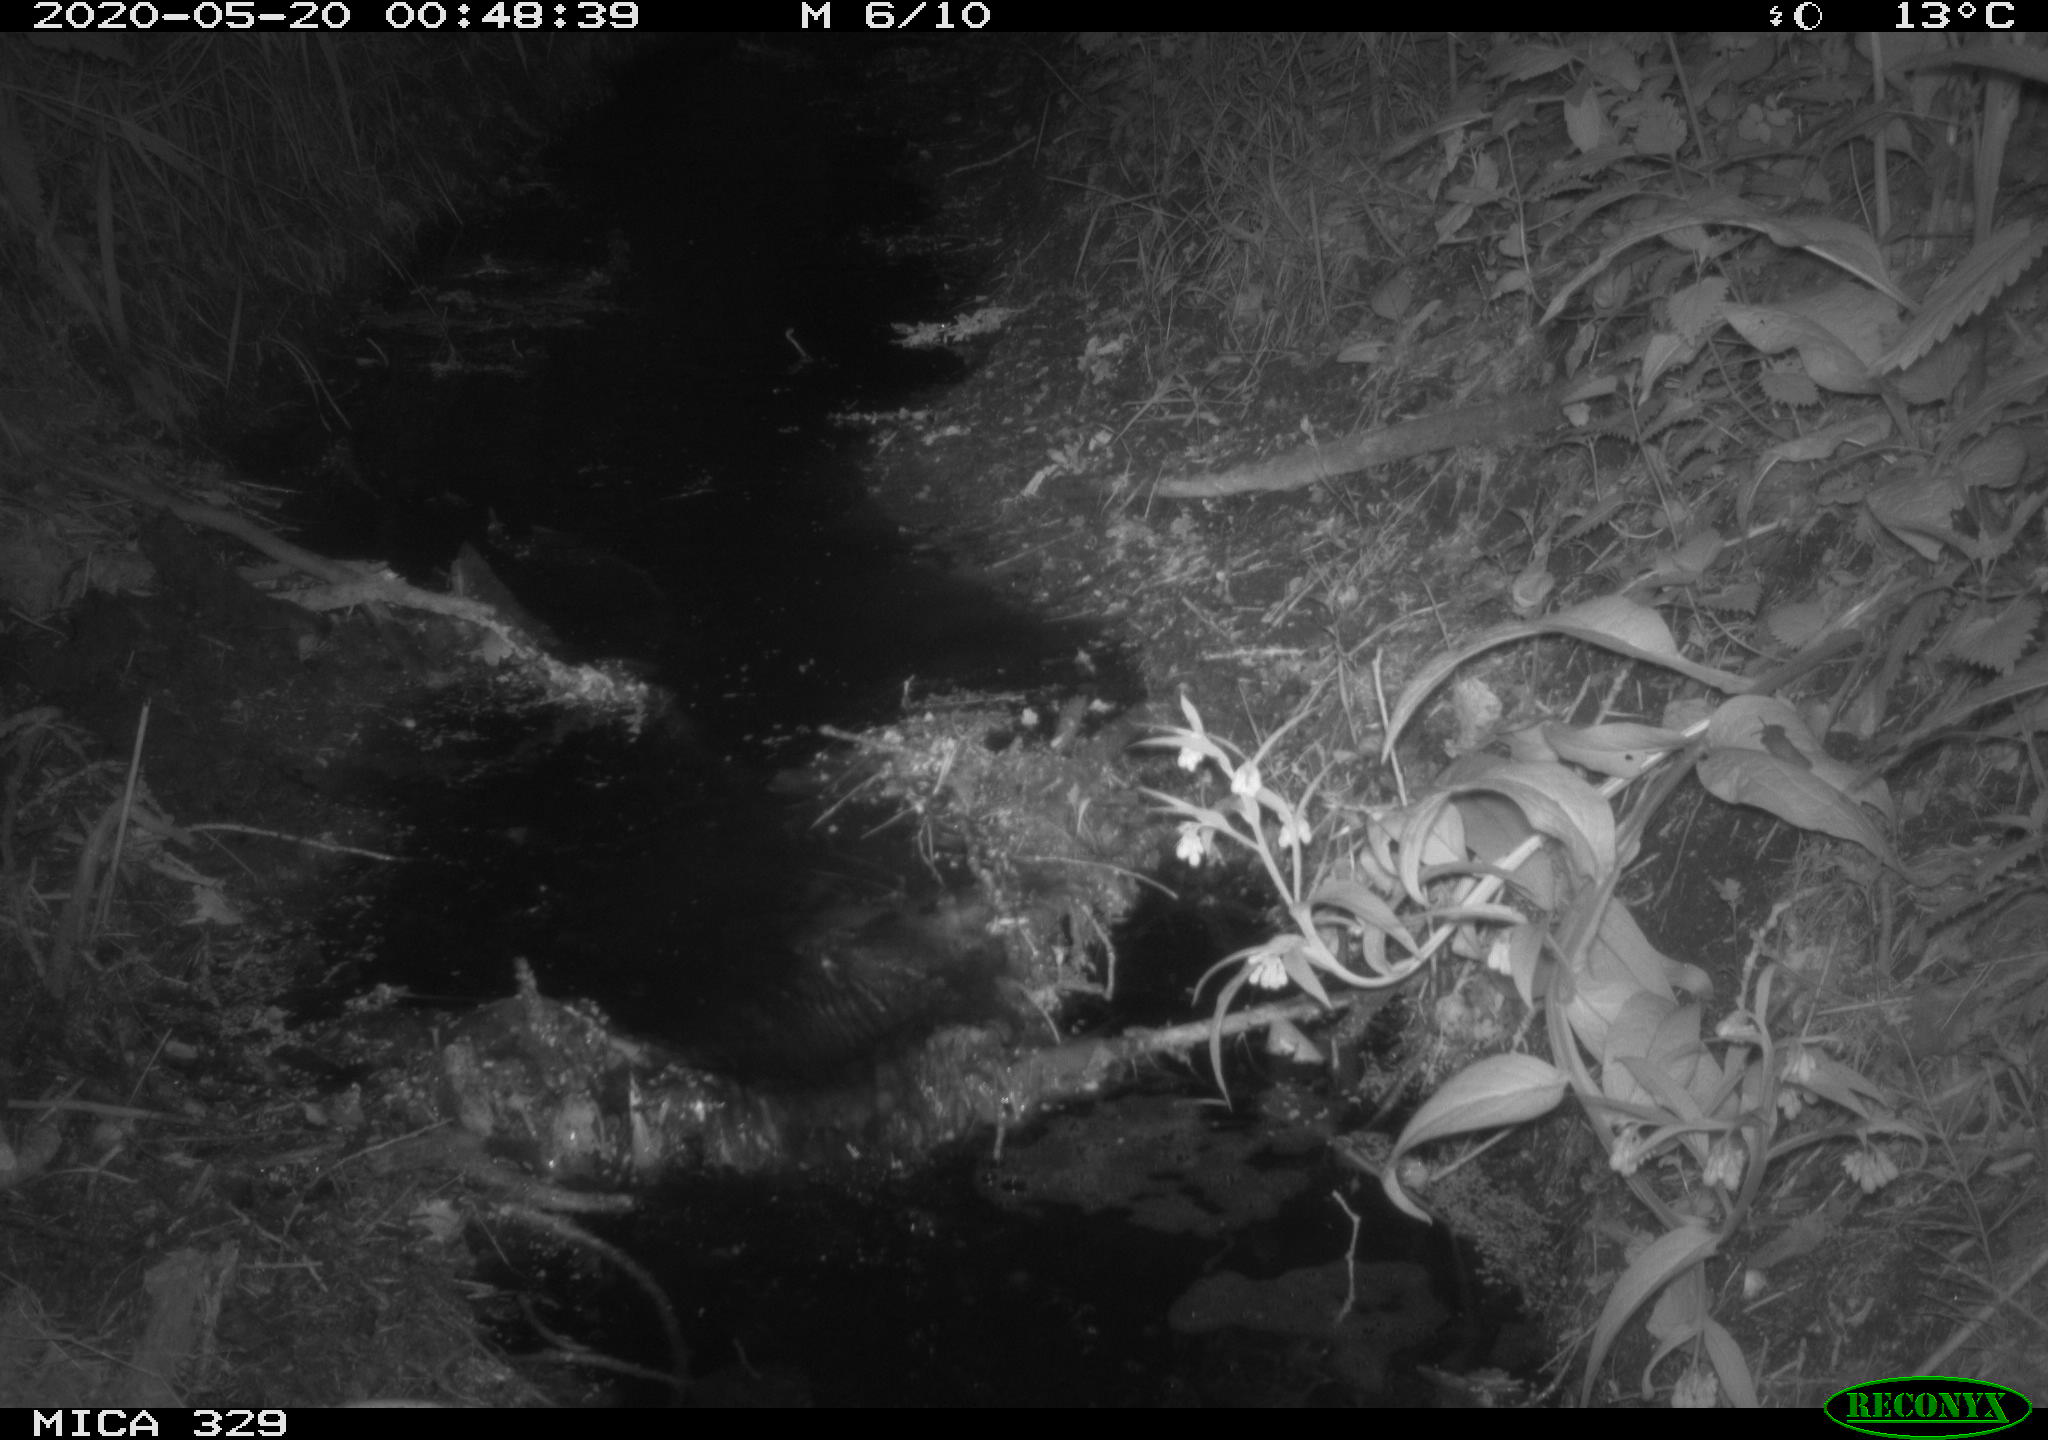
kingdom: Animalia
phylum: Chordata
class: Mammalia
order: Rodentia
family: Cricetidae
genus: Ondatra
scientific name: Ondatra zibethicus
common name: Muskrat
